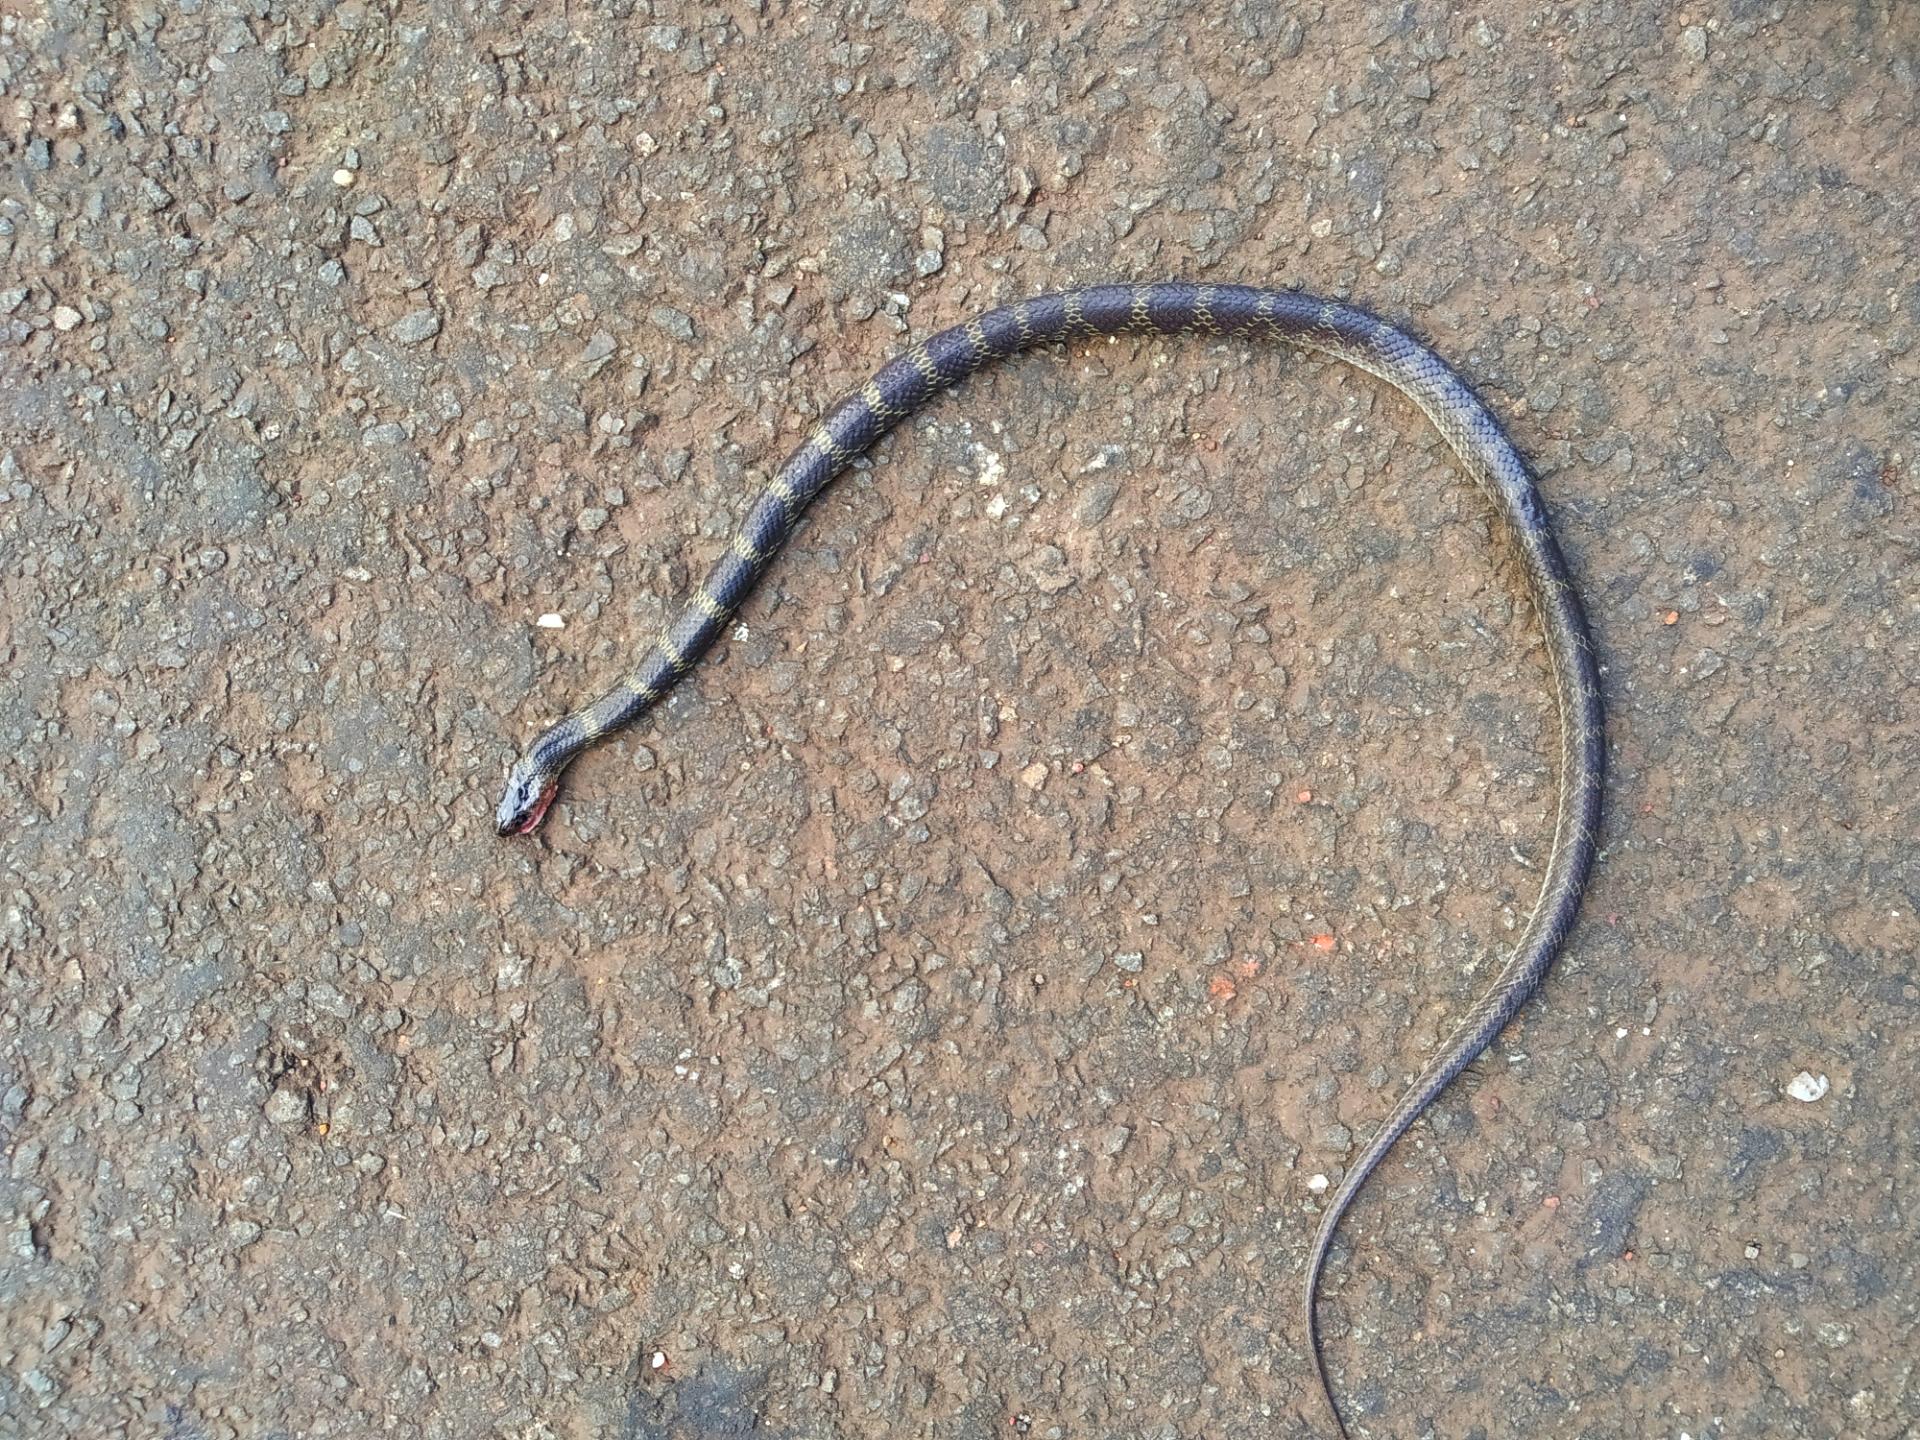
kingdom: Animalia
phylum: Chordata
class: Squamata
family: Colubridae
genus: Lycodon
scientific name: Lycodon
